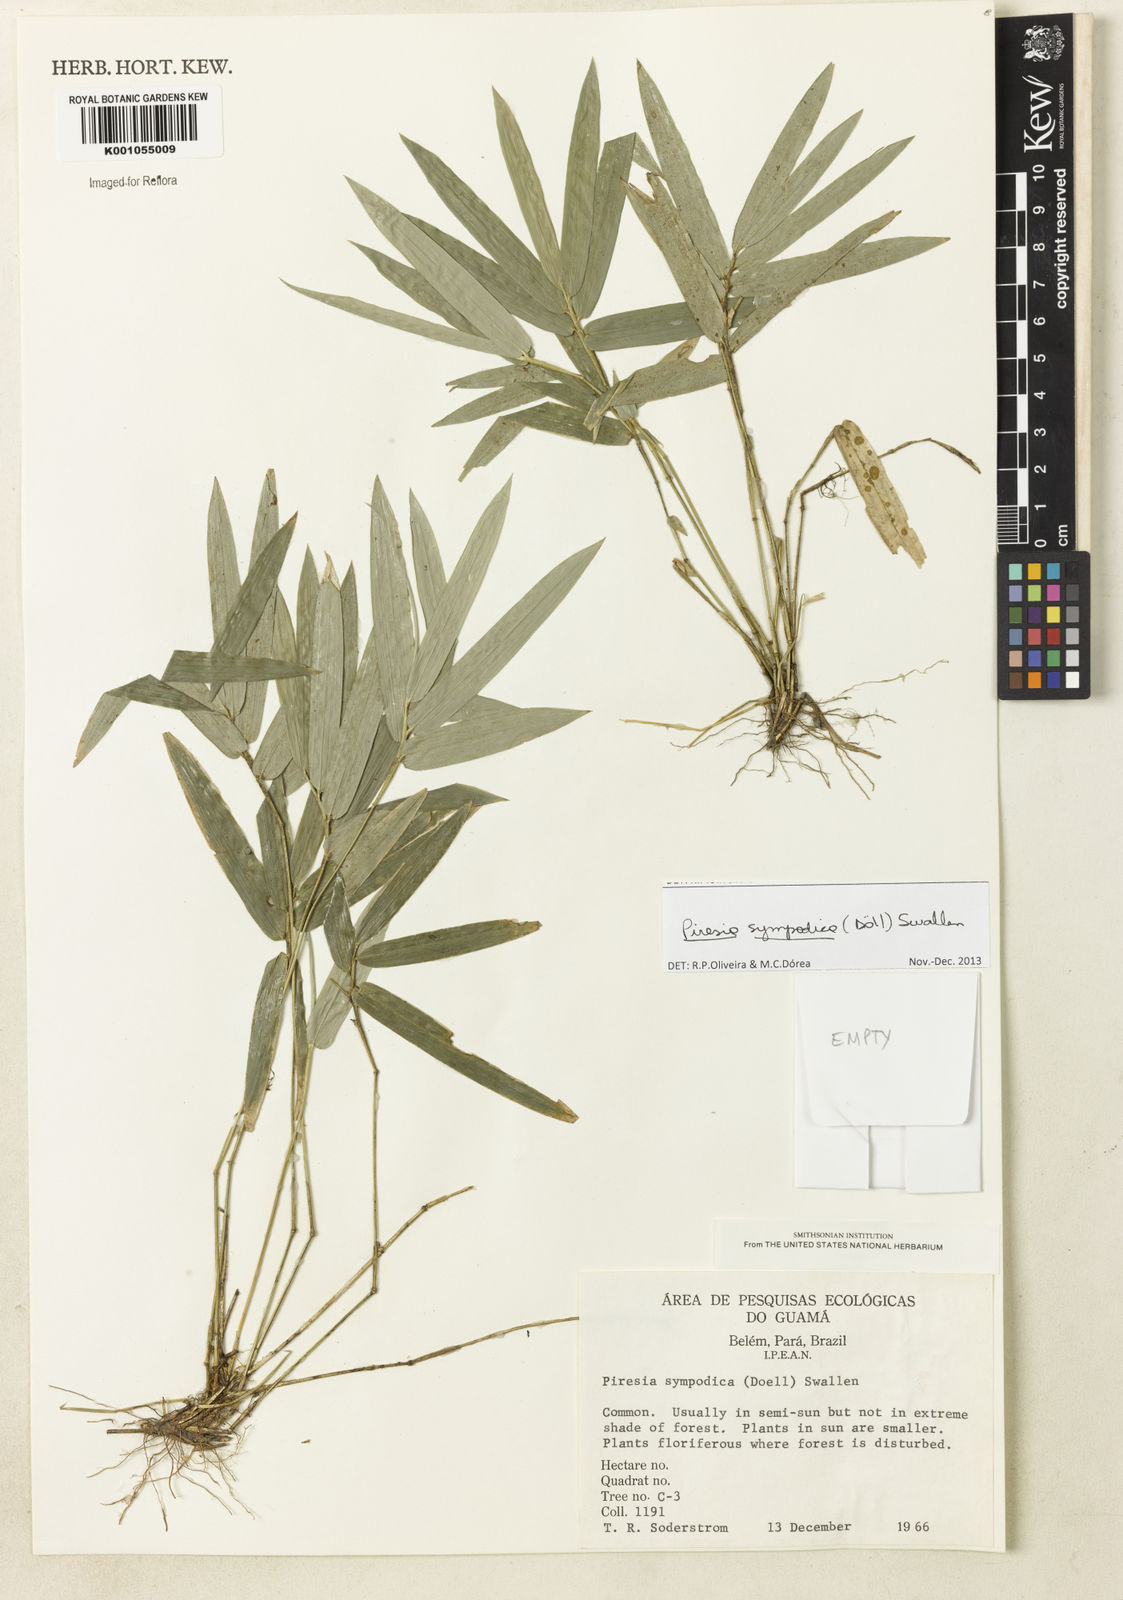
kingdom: Plantae
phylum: Tracheophyta
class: Liliopsida
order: Poales
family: Poaceae
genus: Piresia
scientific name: Piresia
